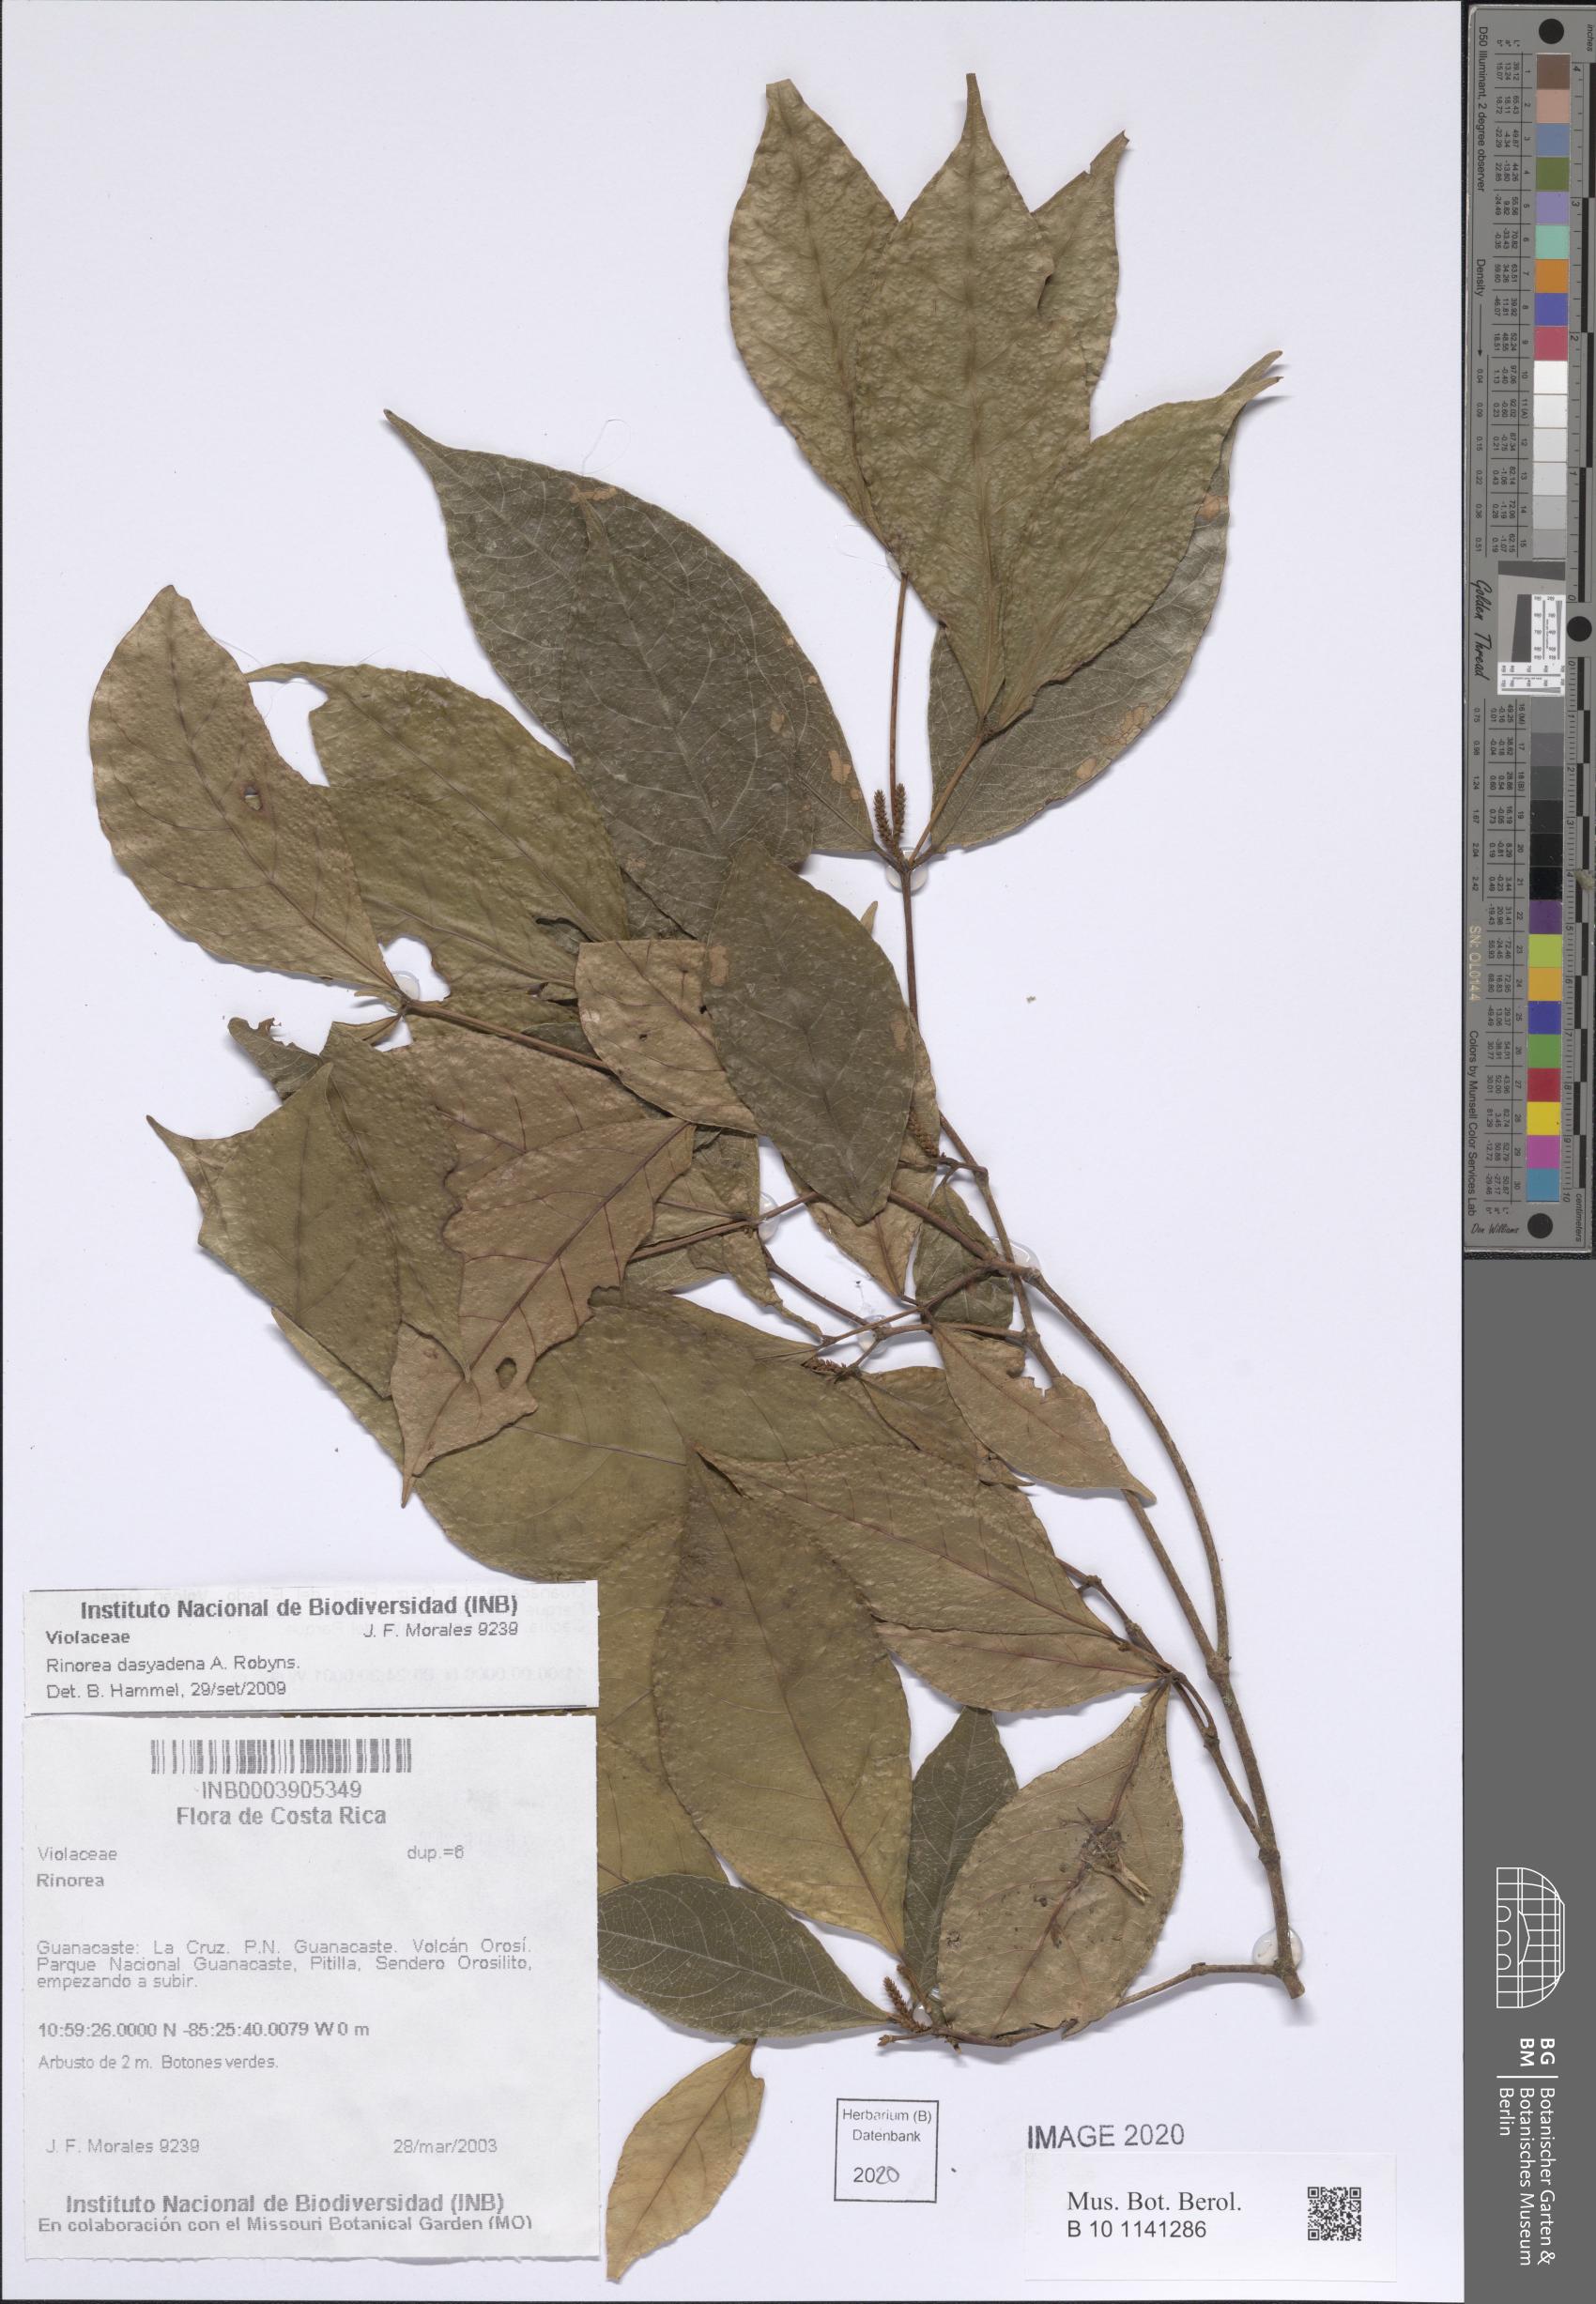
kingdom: Plantae
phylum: Tracheophyta
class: Magnoliopsida
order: Malpighiales
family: Violaceae
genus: Rinorea
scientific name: Rinorea dasyadena
